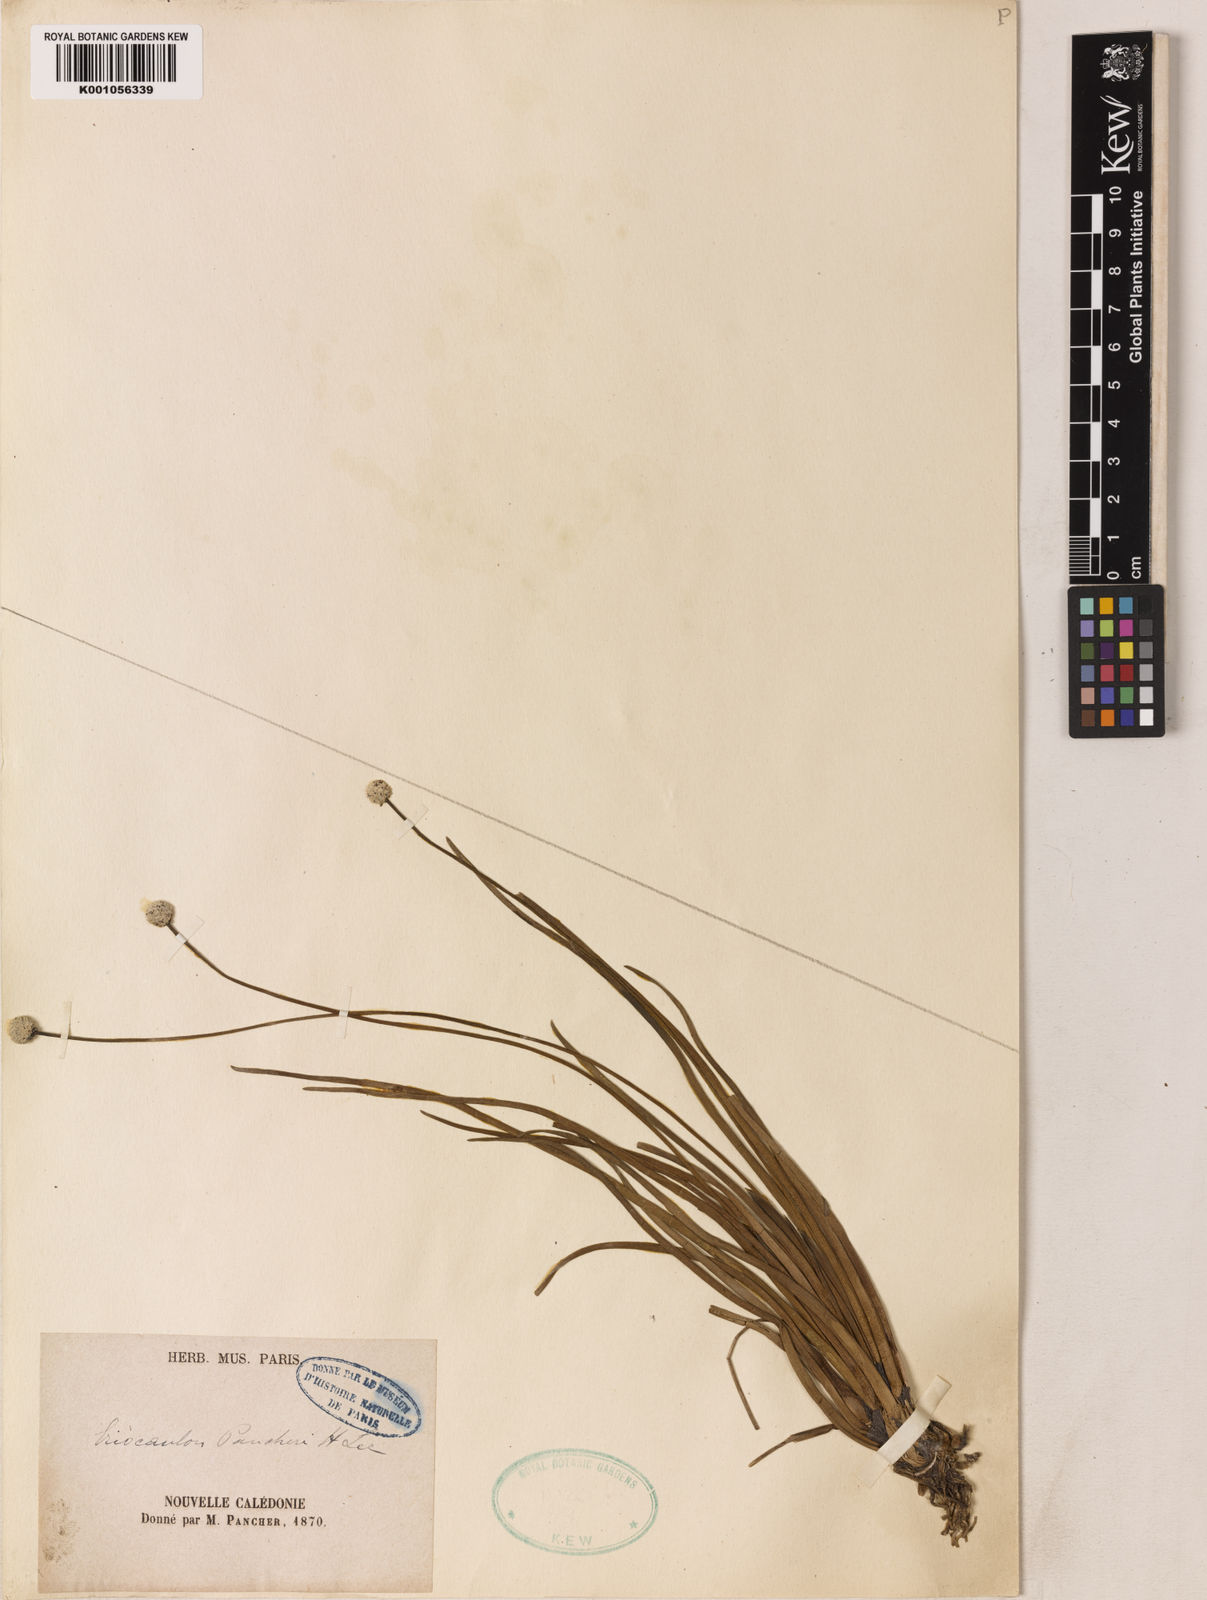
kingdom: Plantae
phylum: Tracheophyta
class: Liliopsida
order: Poales
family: Eriocaulaceae
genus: Eriocaulon
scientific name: Eriocaulon pancheri
